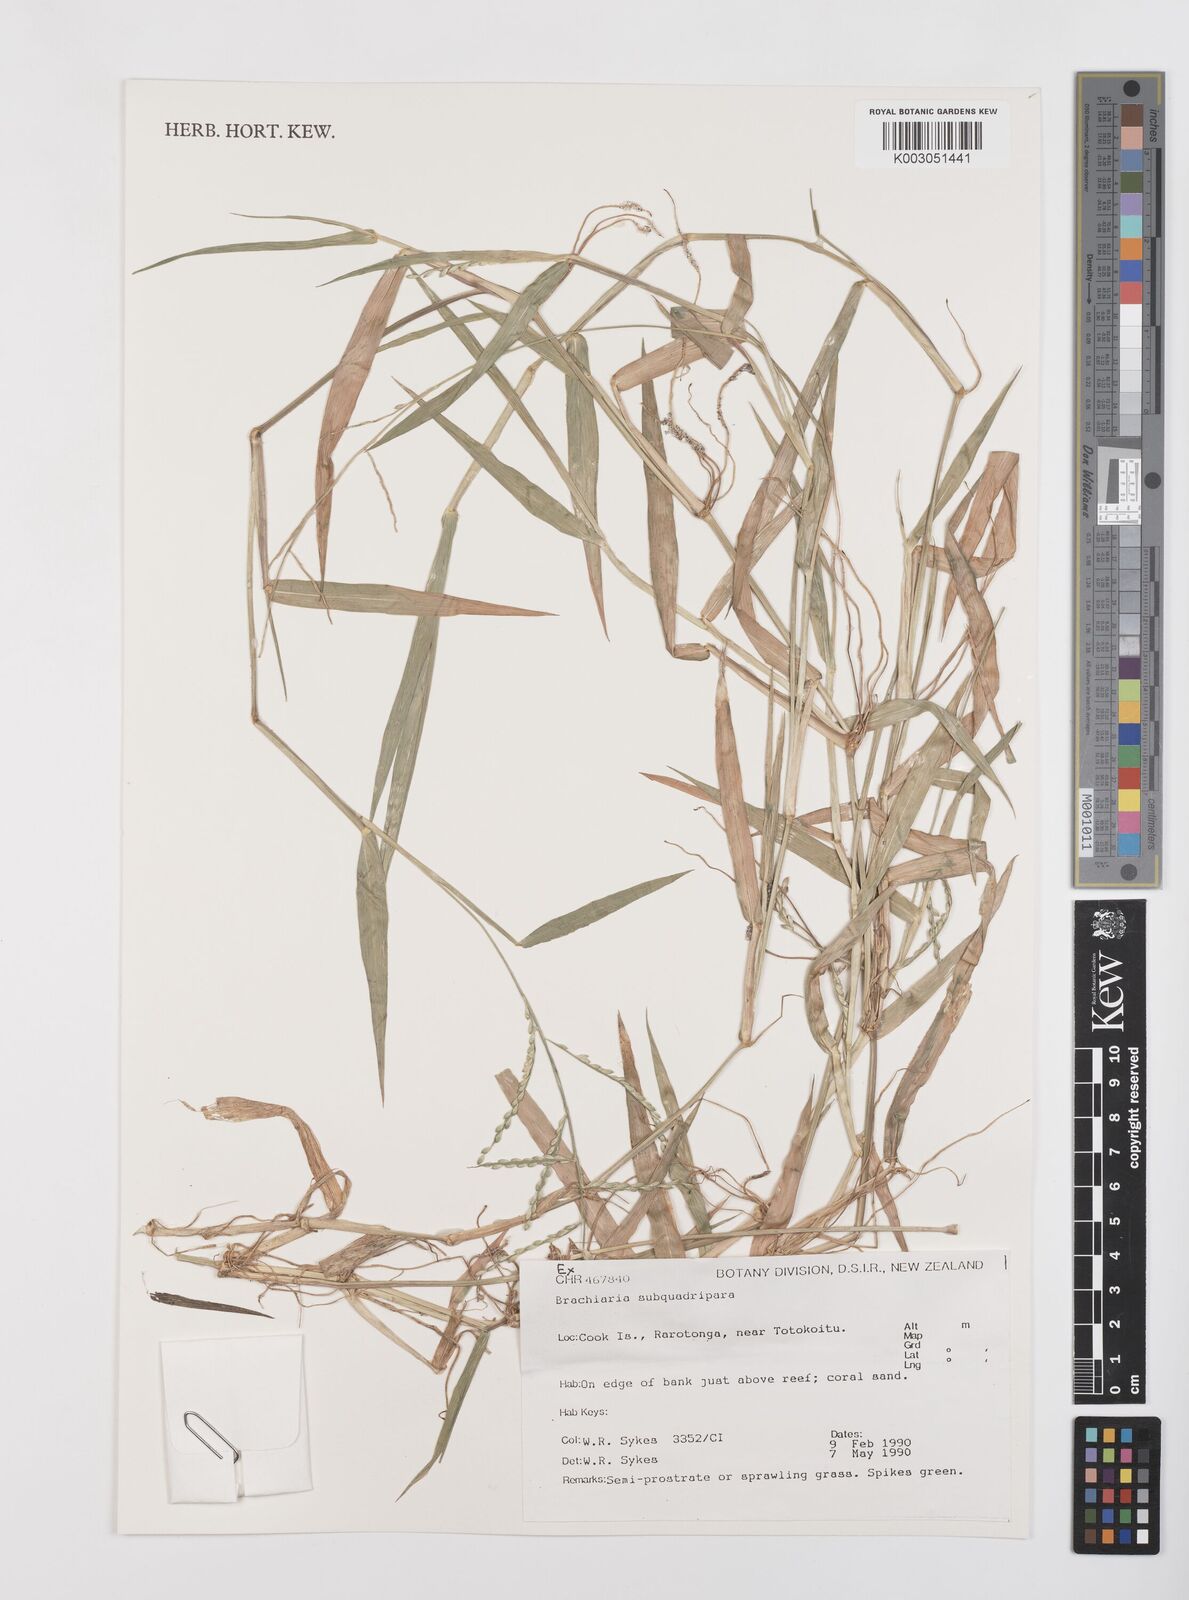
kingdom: Plantae
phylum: Tracheophyta
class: Liliopsida
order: Poales
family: Poaceae
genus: Urochloa
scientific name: Urochloa subquadripara
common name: Armgrass millet
